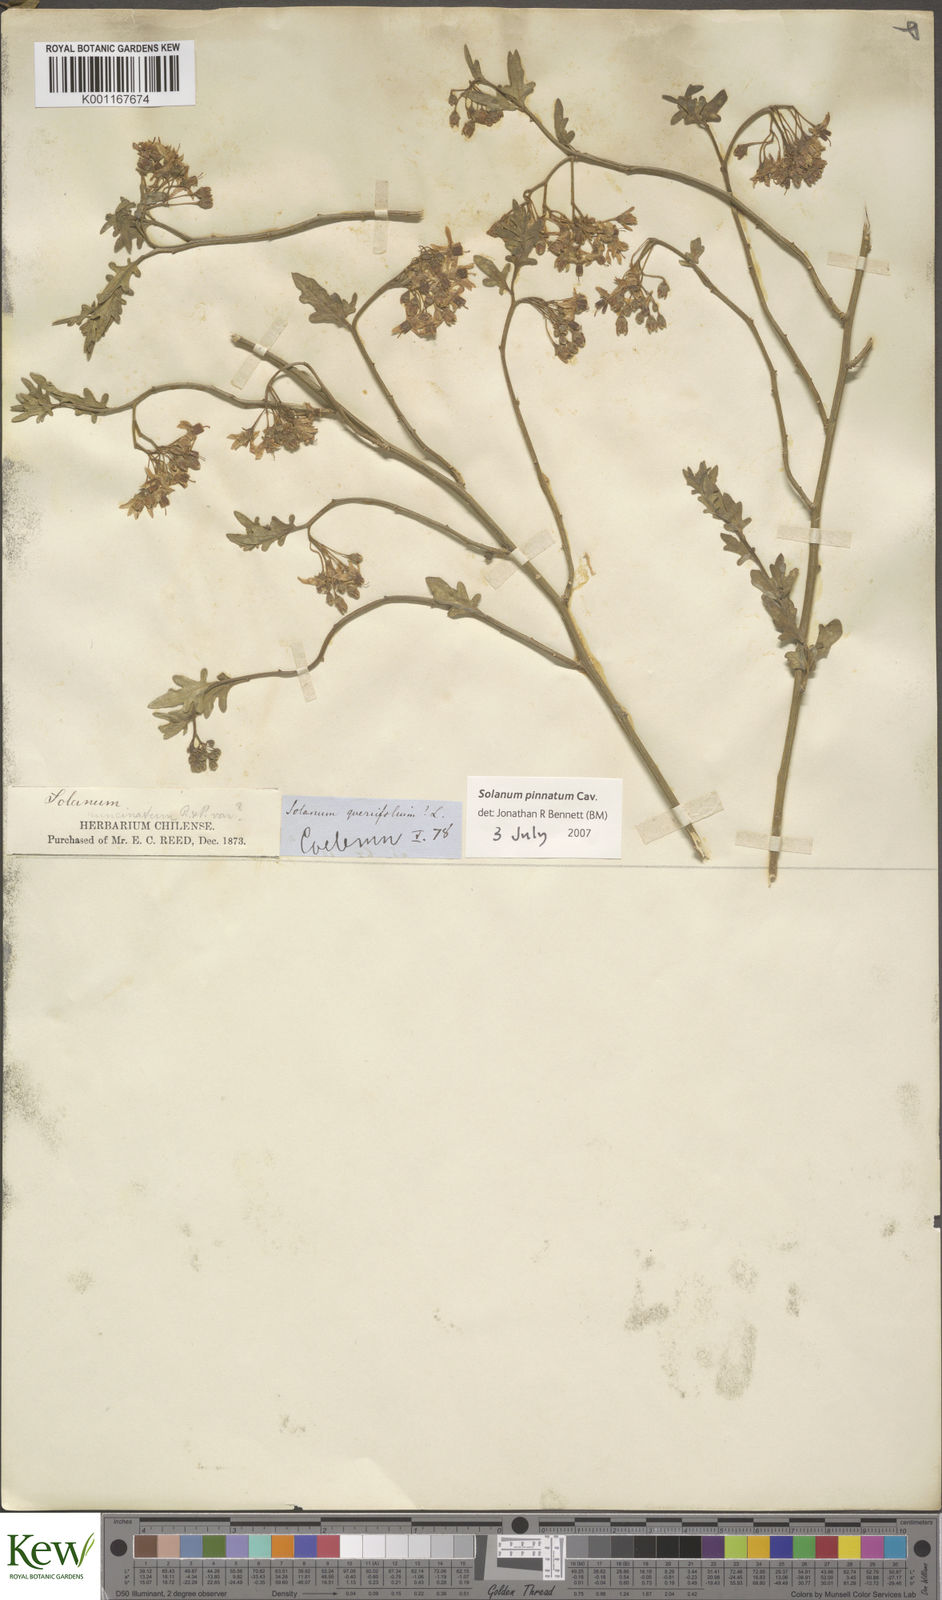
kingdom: Plantae
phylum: Tracheophyta
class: Magnoliopsida
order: Solanales
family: Solanaceae
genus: Solanum
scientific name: Solanum pinnatum
